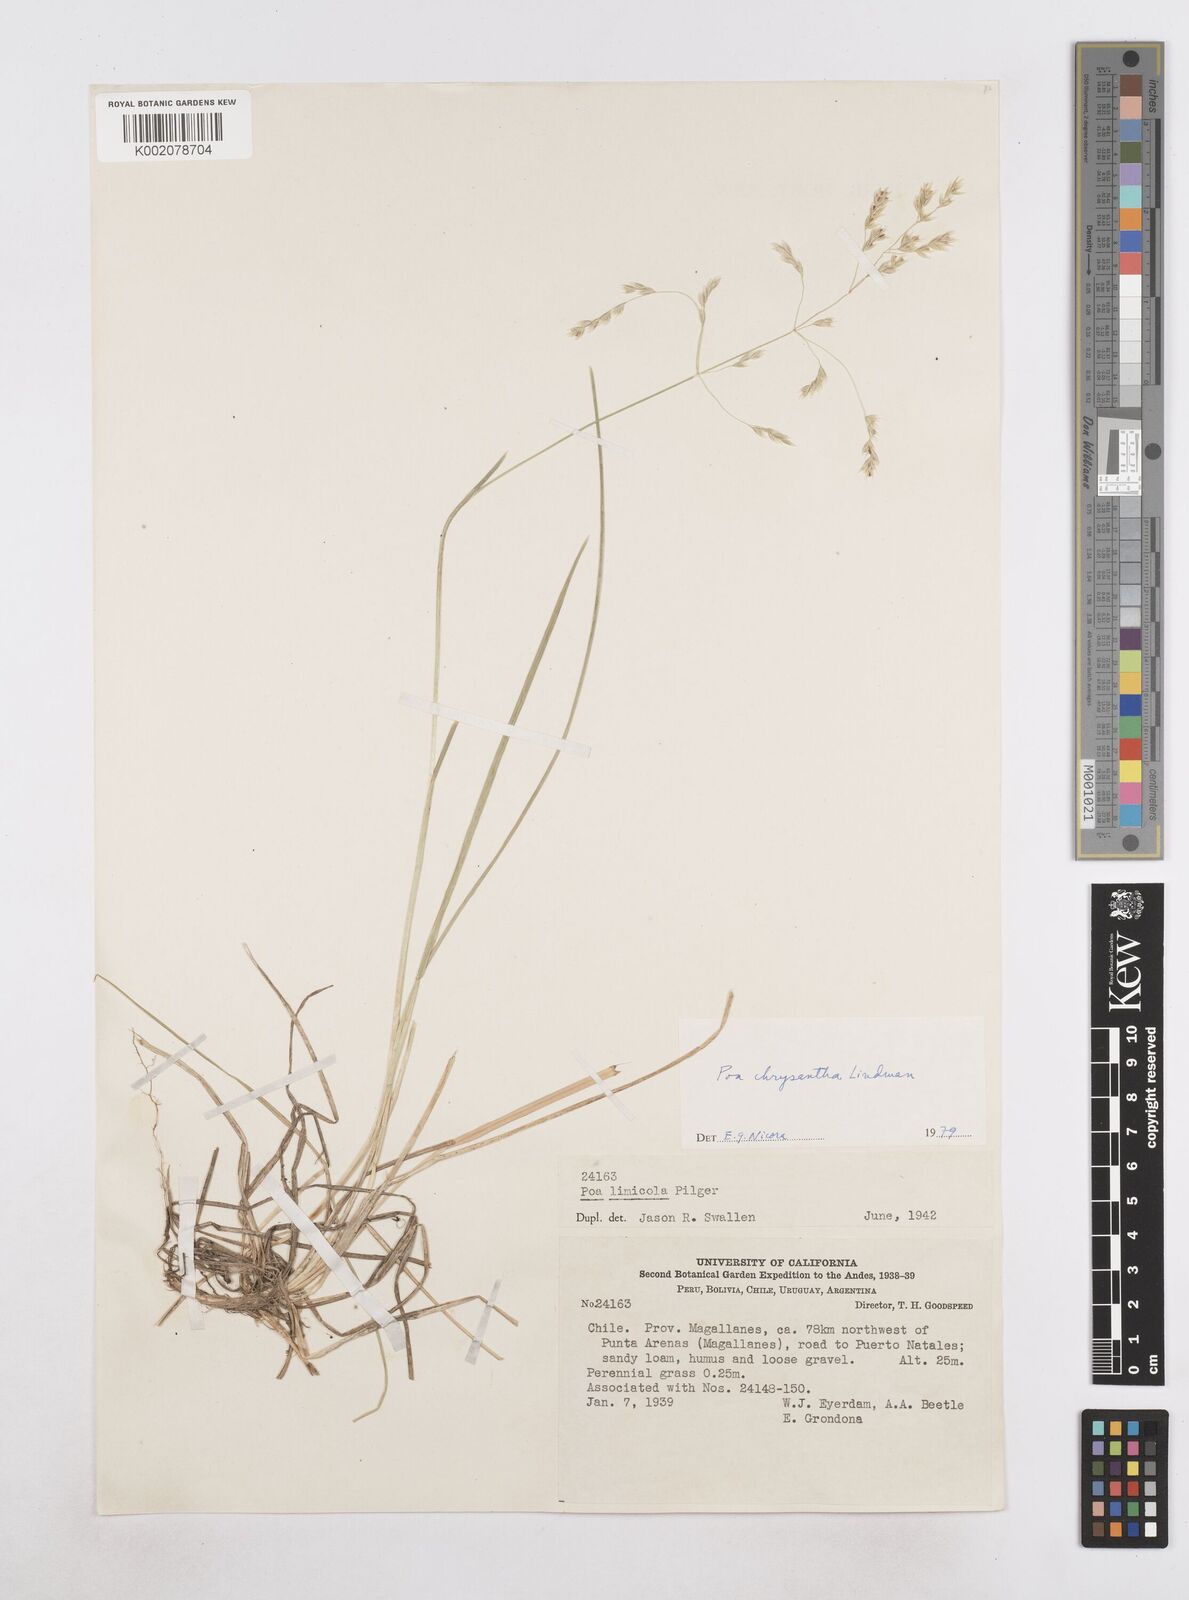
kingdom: Plantae
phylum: Tracheophyta
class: Liliopsida
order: Poales
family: Poaceae
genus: Poa
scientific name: Poa yaganica
